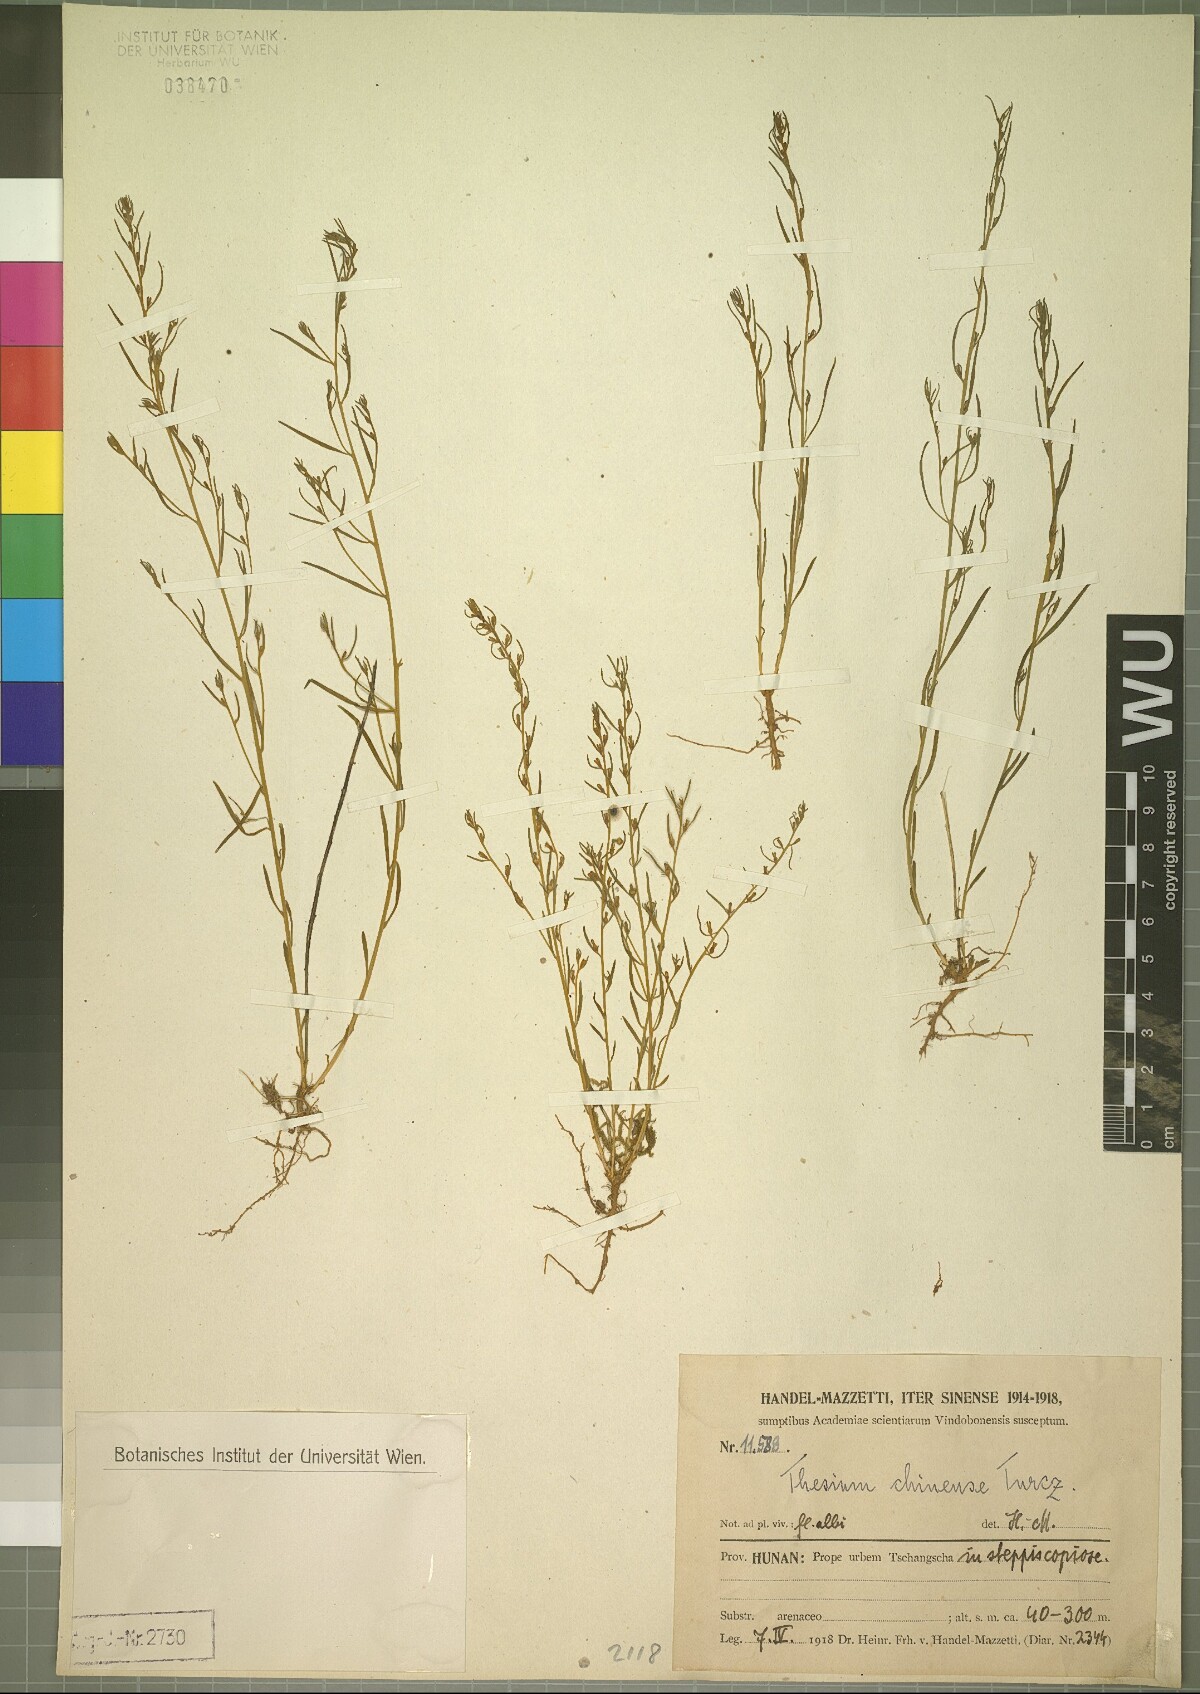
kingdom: Plantae
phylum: Tracheophyta
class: Magnoliopsida
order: Santalales
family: Thesiaceae
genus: Thesium
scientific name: Thesium chinense
